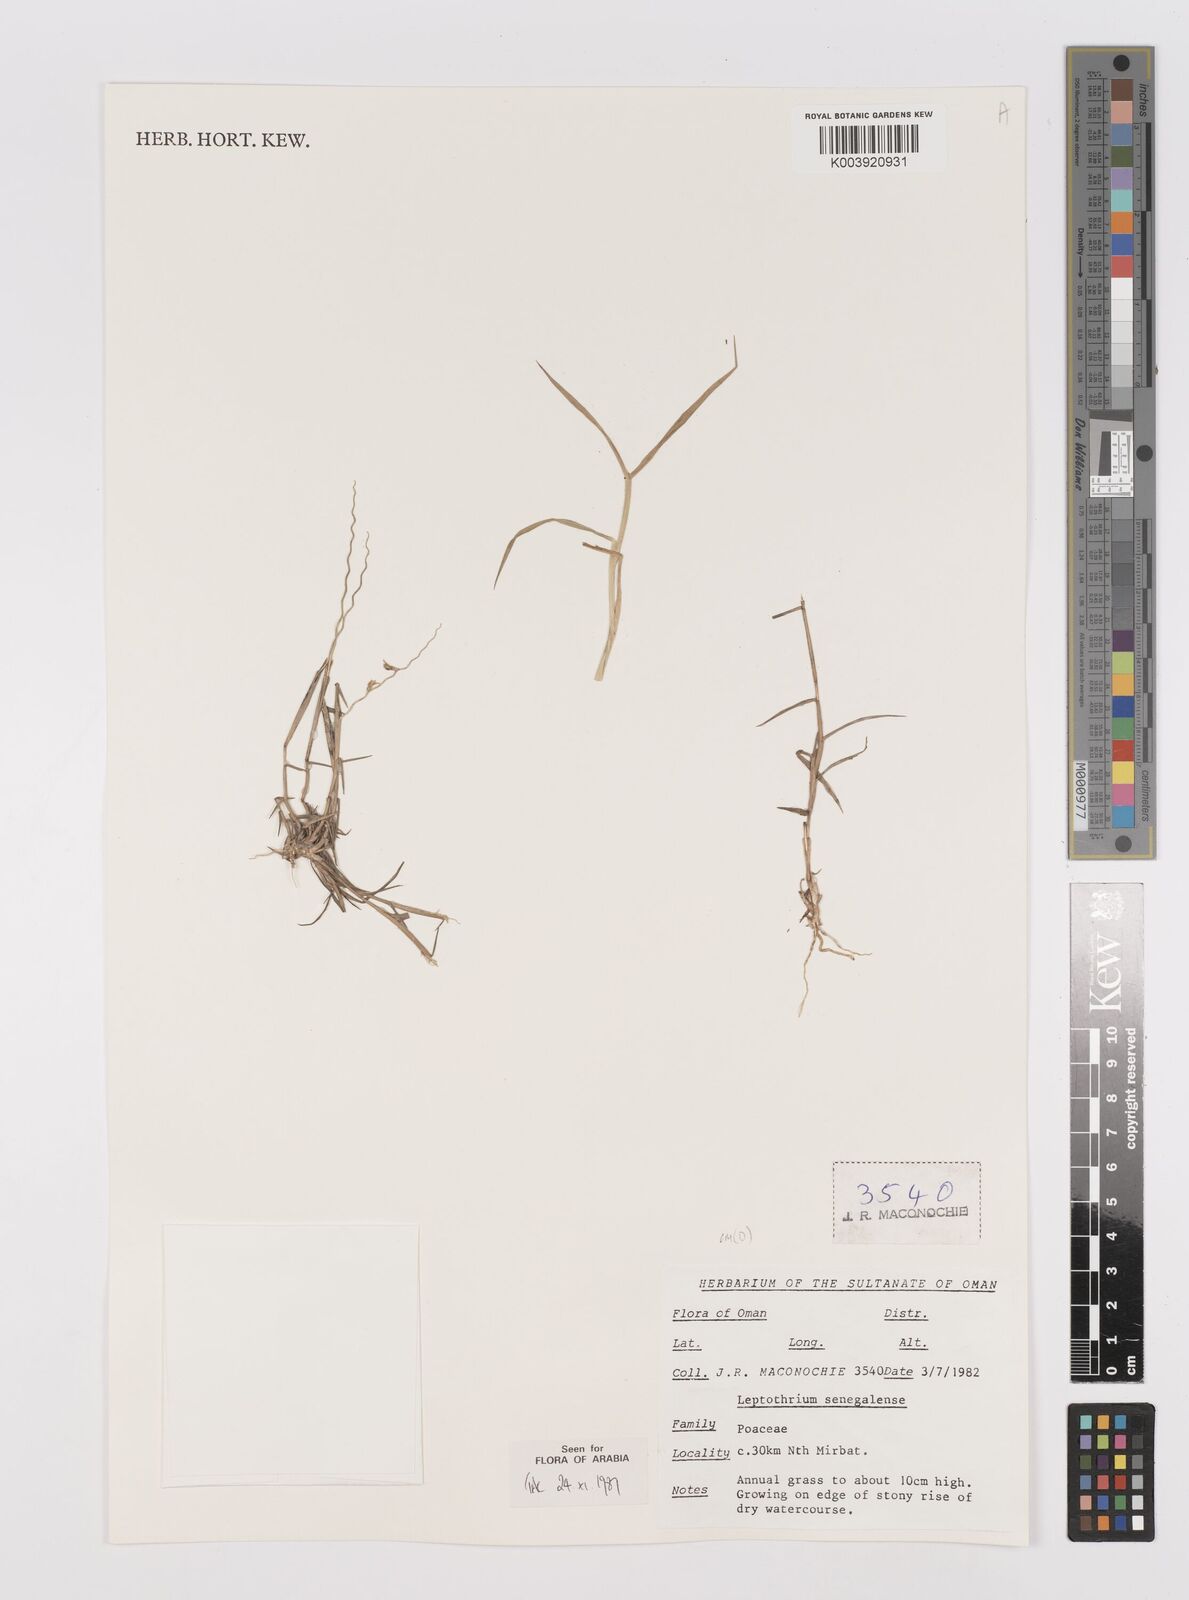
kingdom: Plantae
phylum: Tracheophyta
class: Liliopsida
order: Poales
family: Poaceae
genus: Leptothrium
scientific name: Leptothrium senegalense
